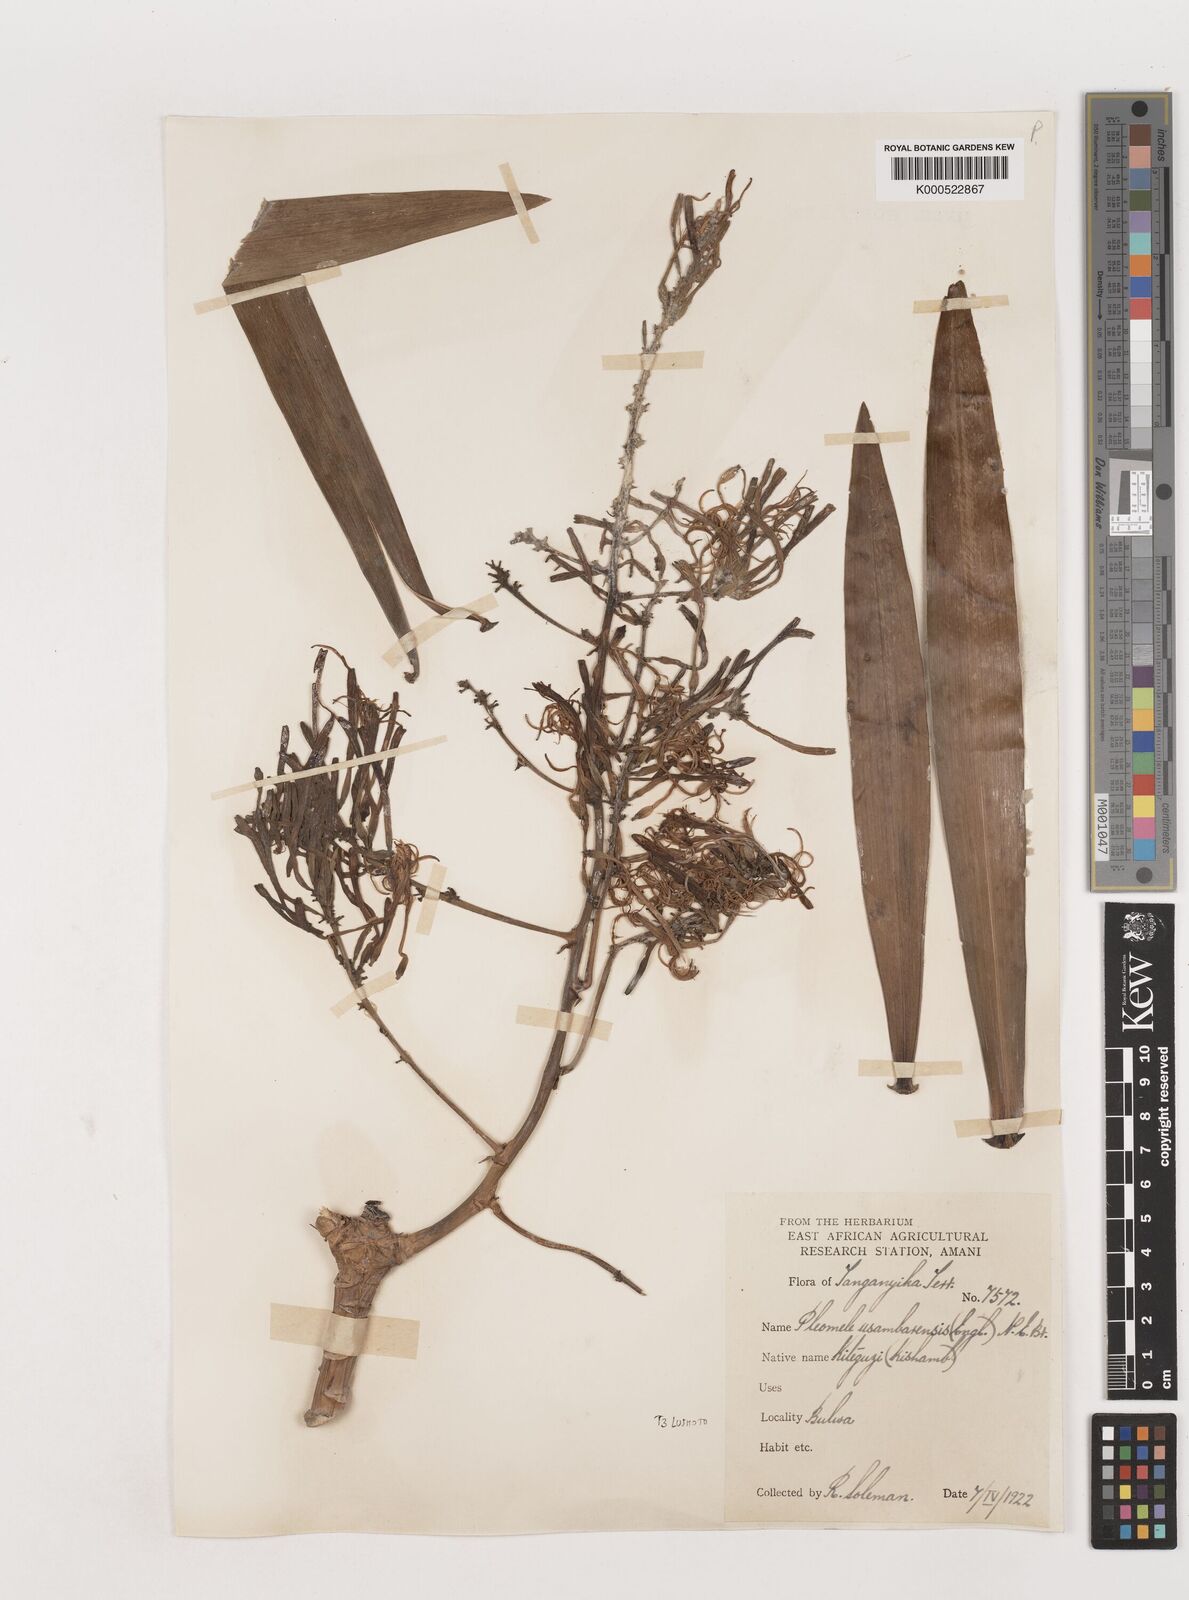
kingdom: Plantae
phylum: Tracheophyta
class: Liliopsida
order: Asparagales
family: Asparagaceae
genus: Dracaena
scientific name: Dracaena usambarensis
